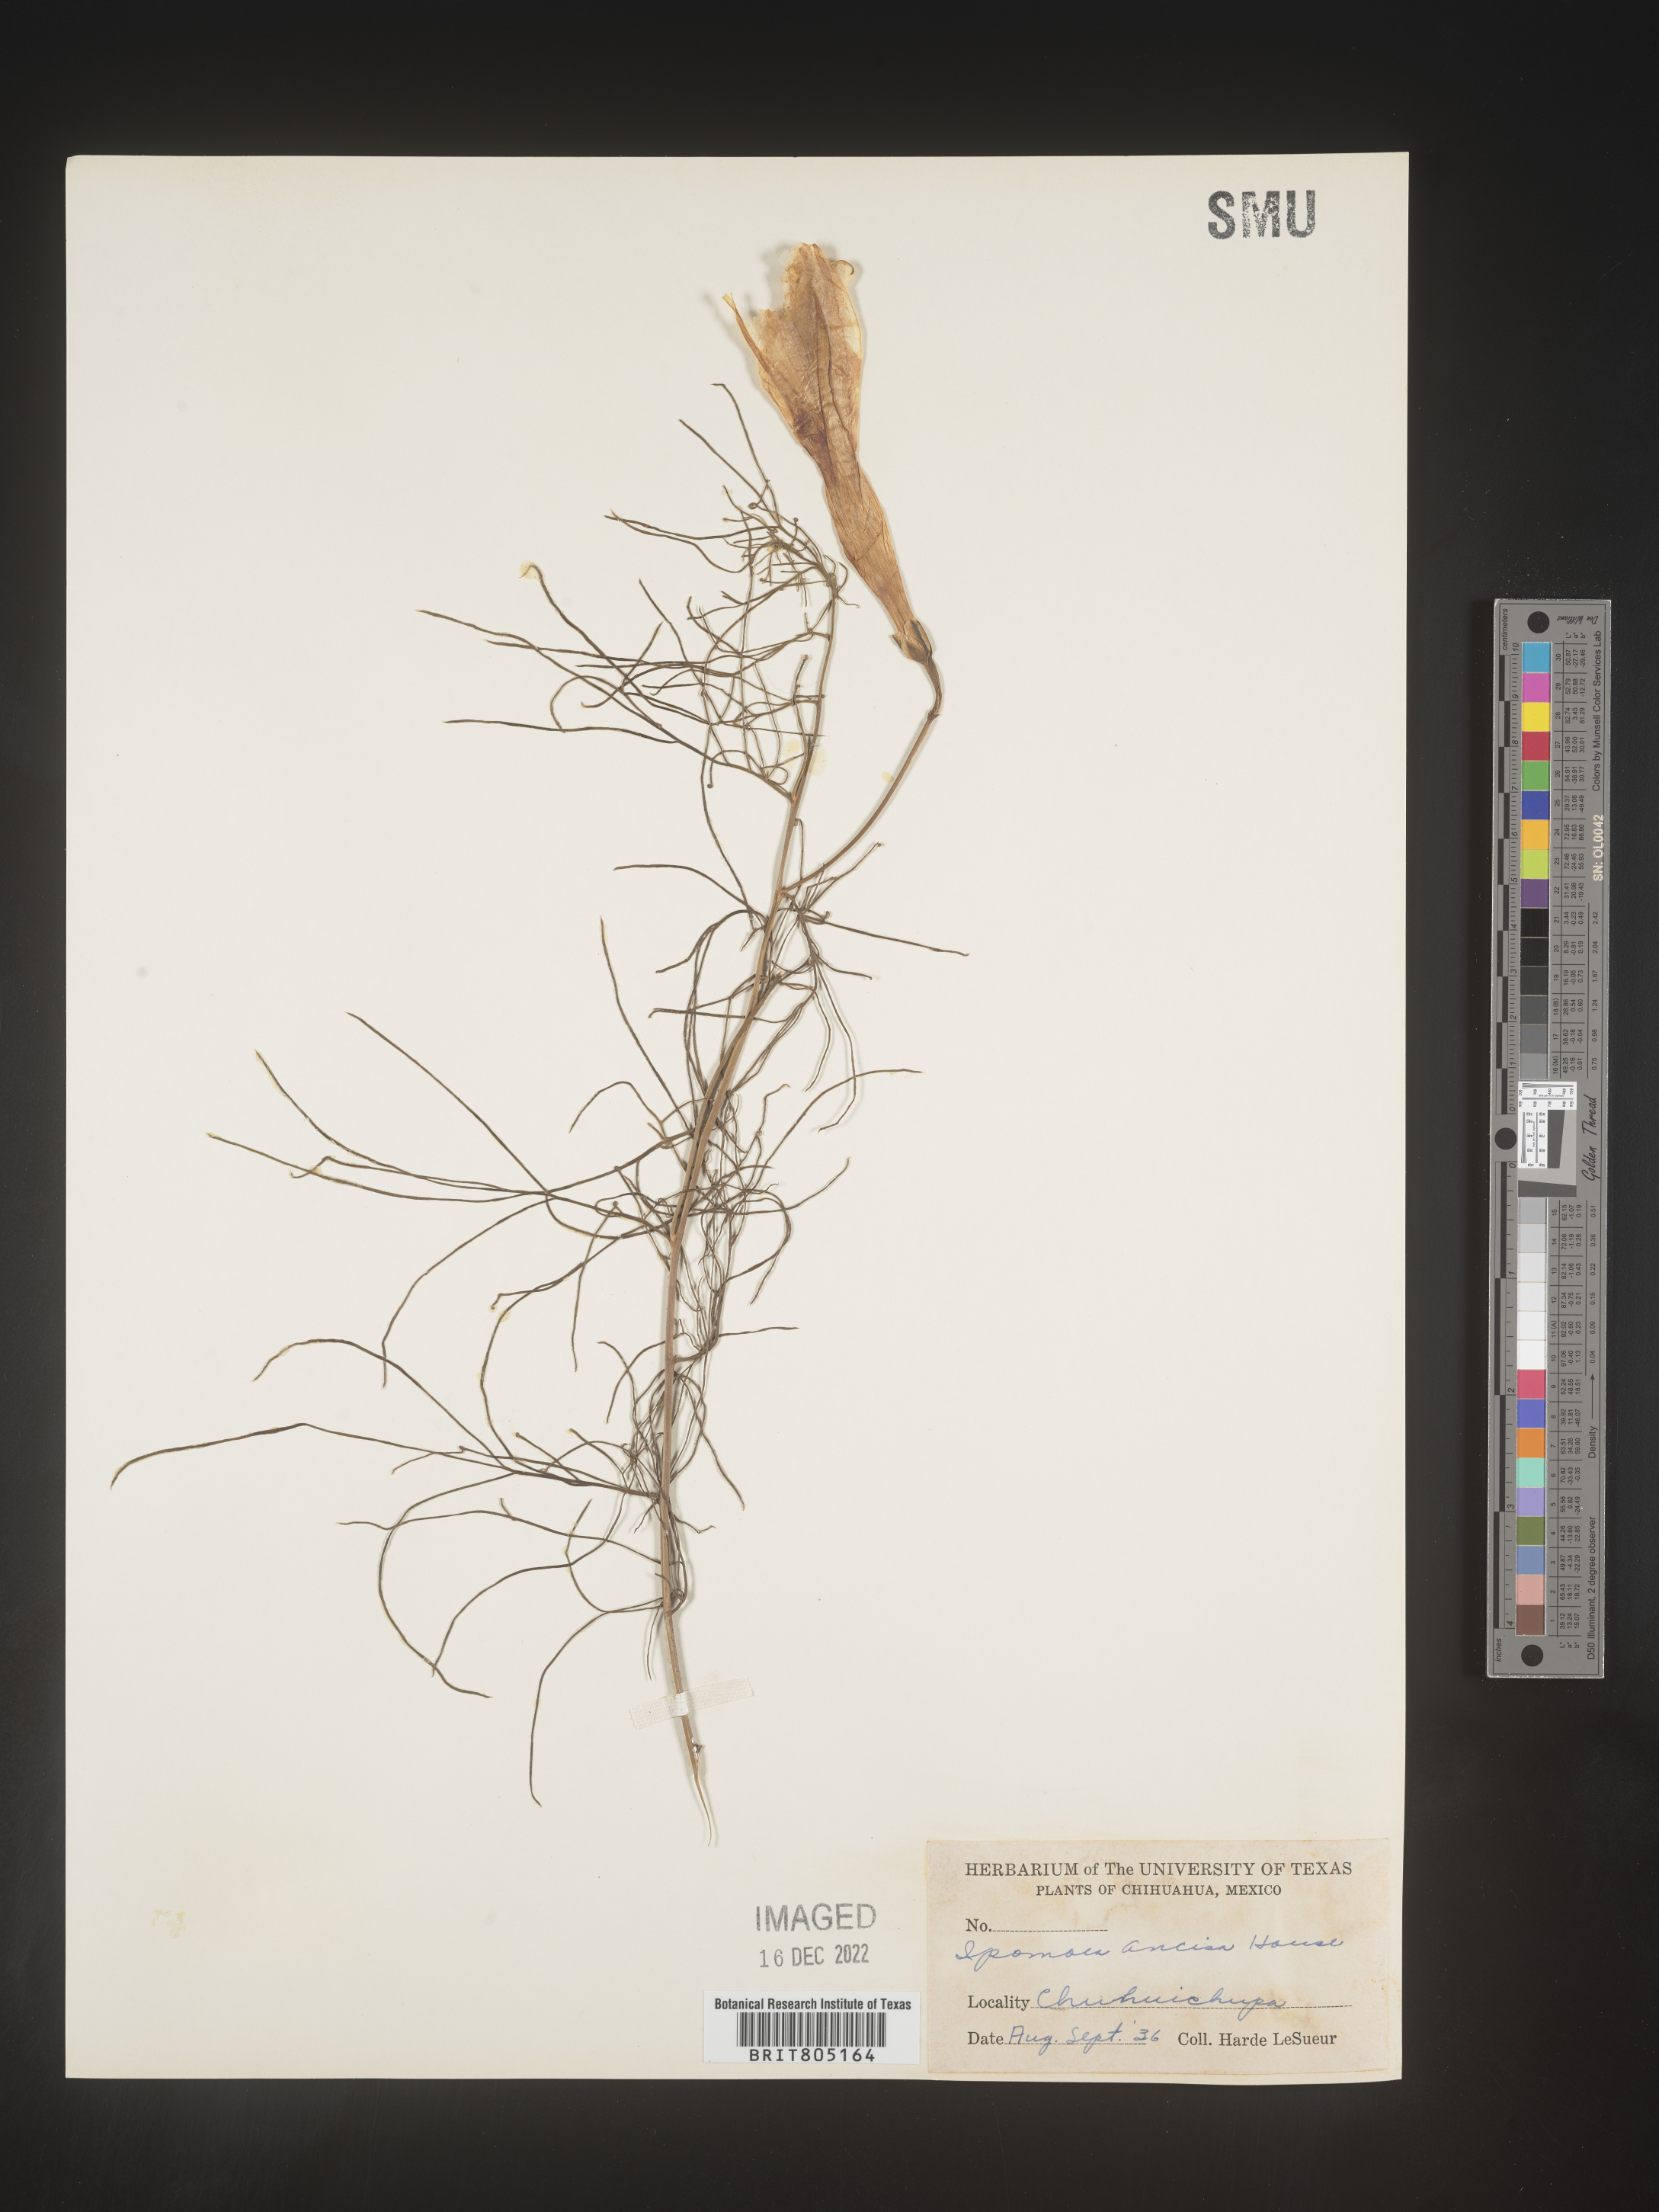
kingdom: Plantae
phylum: Tracheophyta
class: Magnoliopsida
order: Solanales
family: Convolvulaceae
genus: Ipomoea
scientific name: Ipomoea
